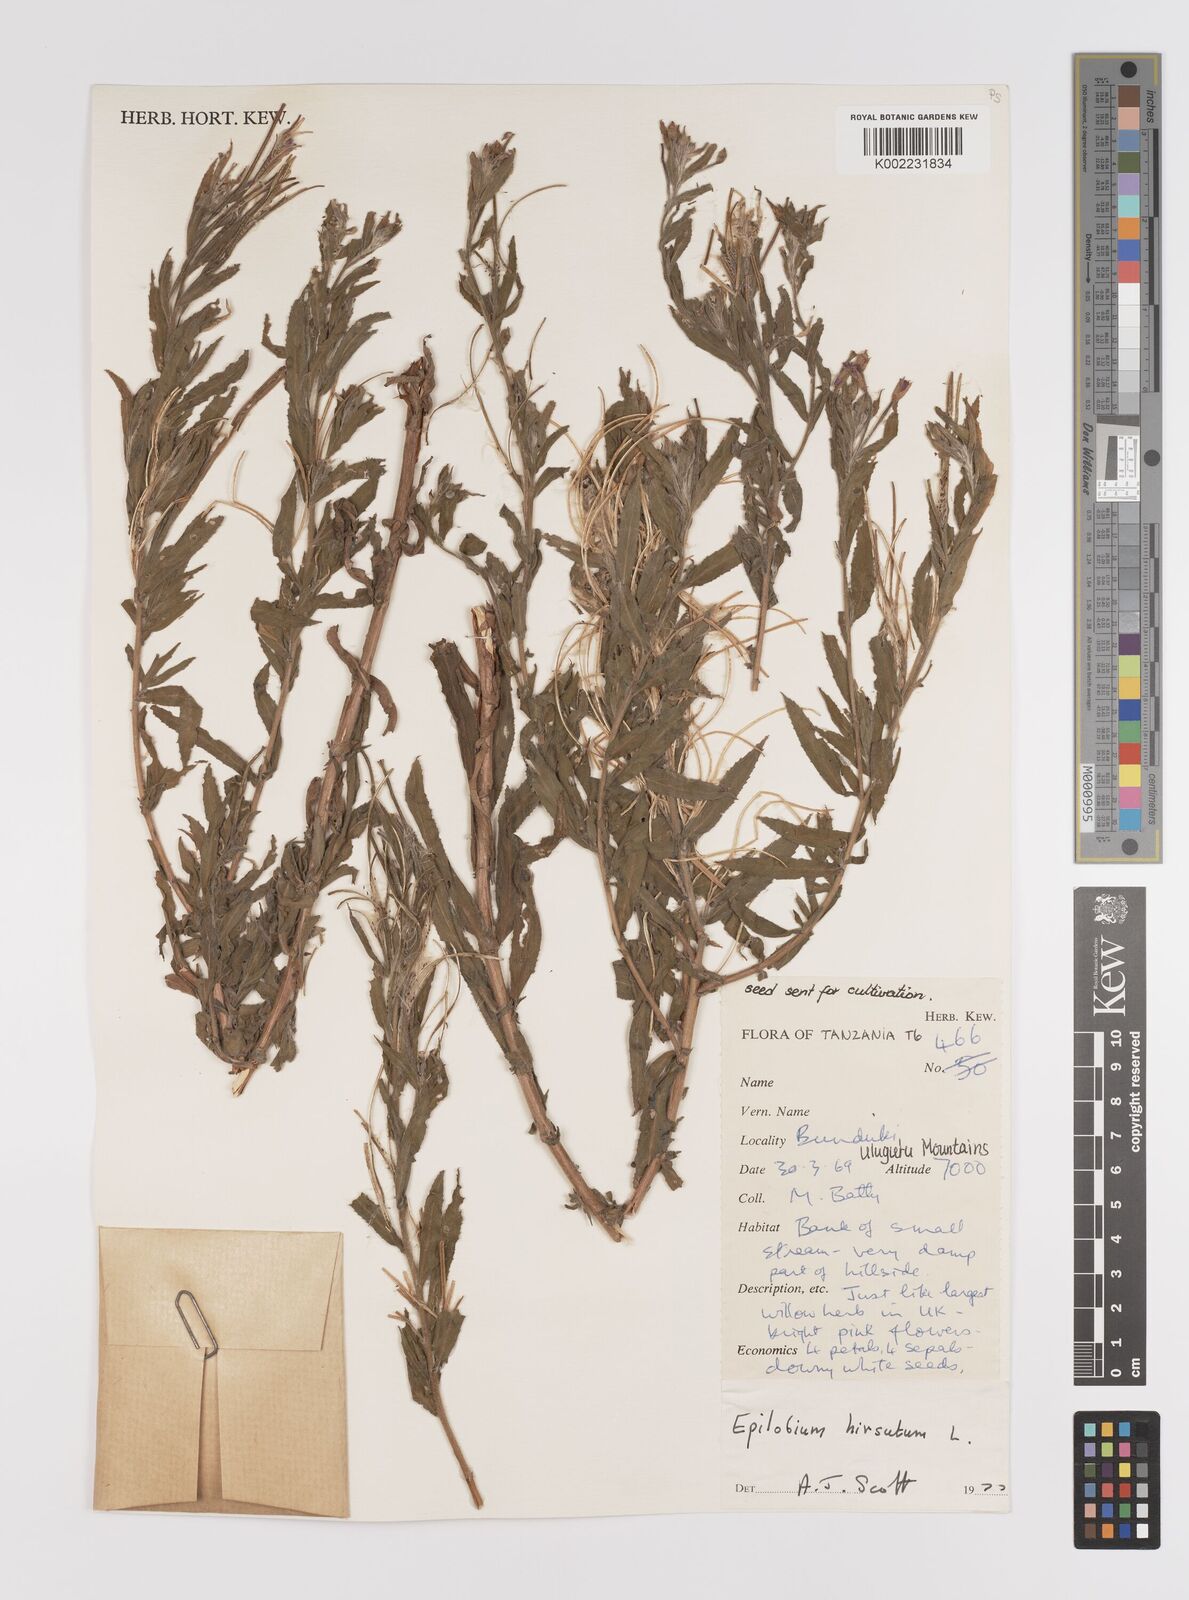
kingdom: Plantae
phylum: Tracheophyta
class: Magnoliopsida
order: Myrtales
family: Onagraceae
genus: Epilobium
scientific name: Epilobium hirsutum
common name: Great willowherb
